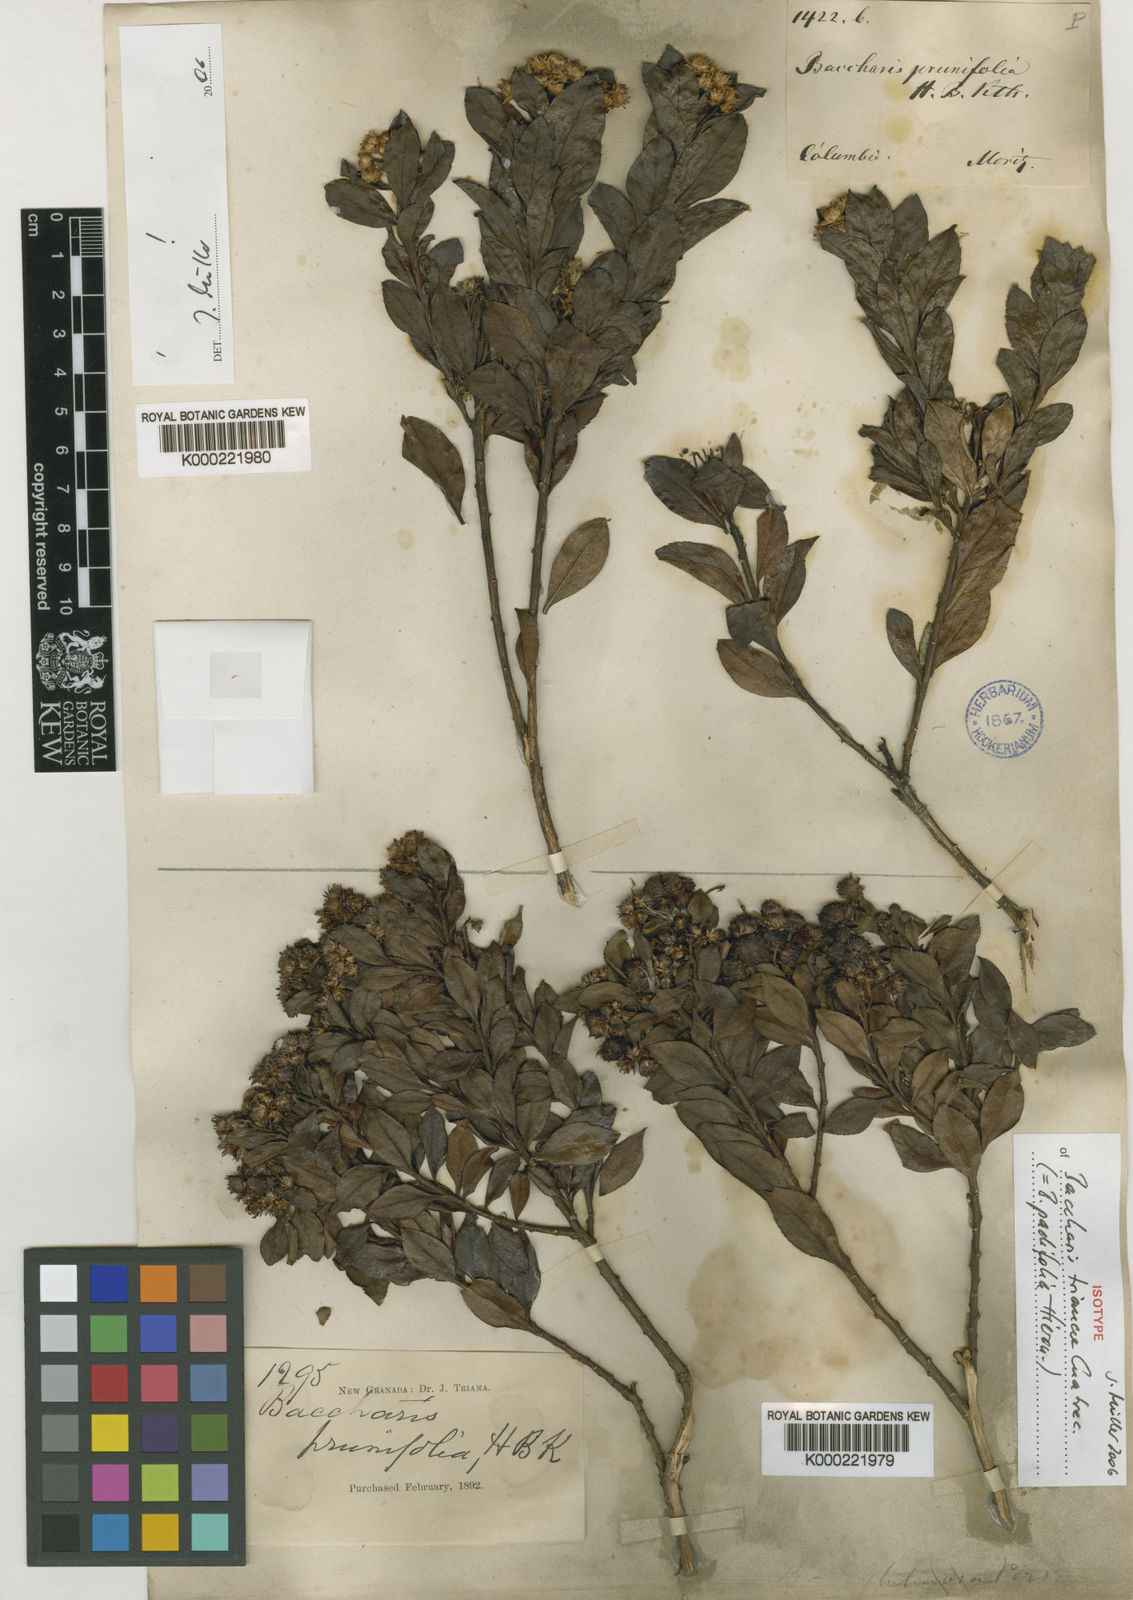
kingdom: Plantae
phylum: Tracheophyta
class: Magnoliopsida
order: Asterales
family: Asteraceae
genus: Baccharis
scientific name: Baccharis padifolia
